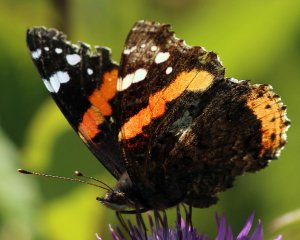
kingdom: Animalia
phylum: Arthropoda
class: Insecta
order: Lepidoptera
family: Nymphalidae
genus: Vanessa
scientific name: Vanessa atalanta
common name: Red Admiral
